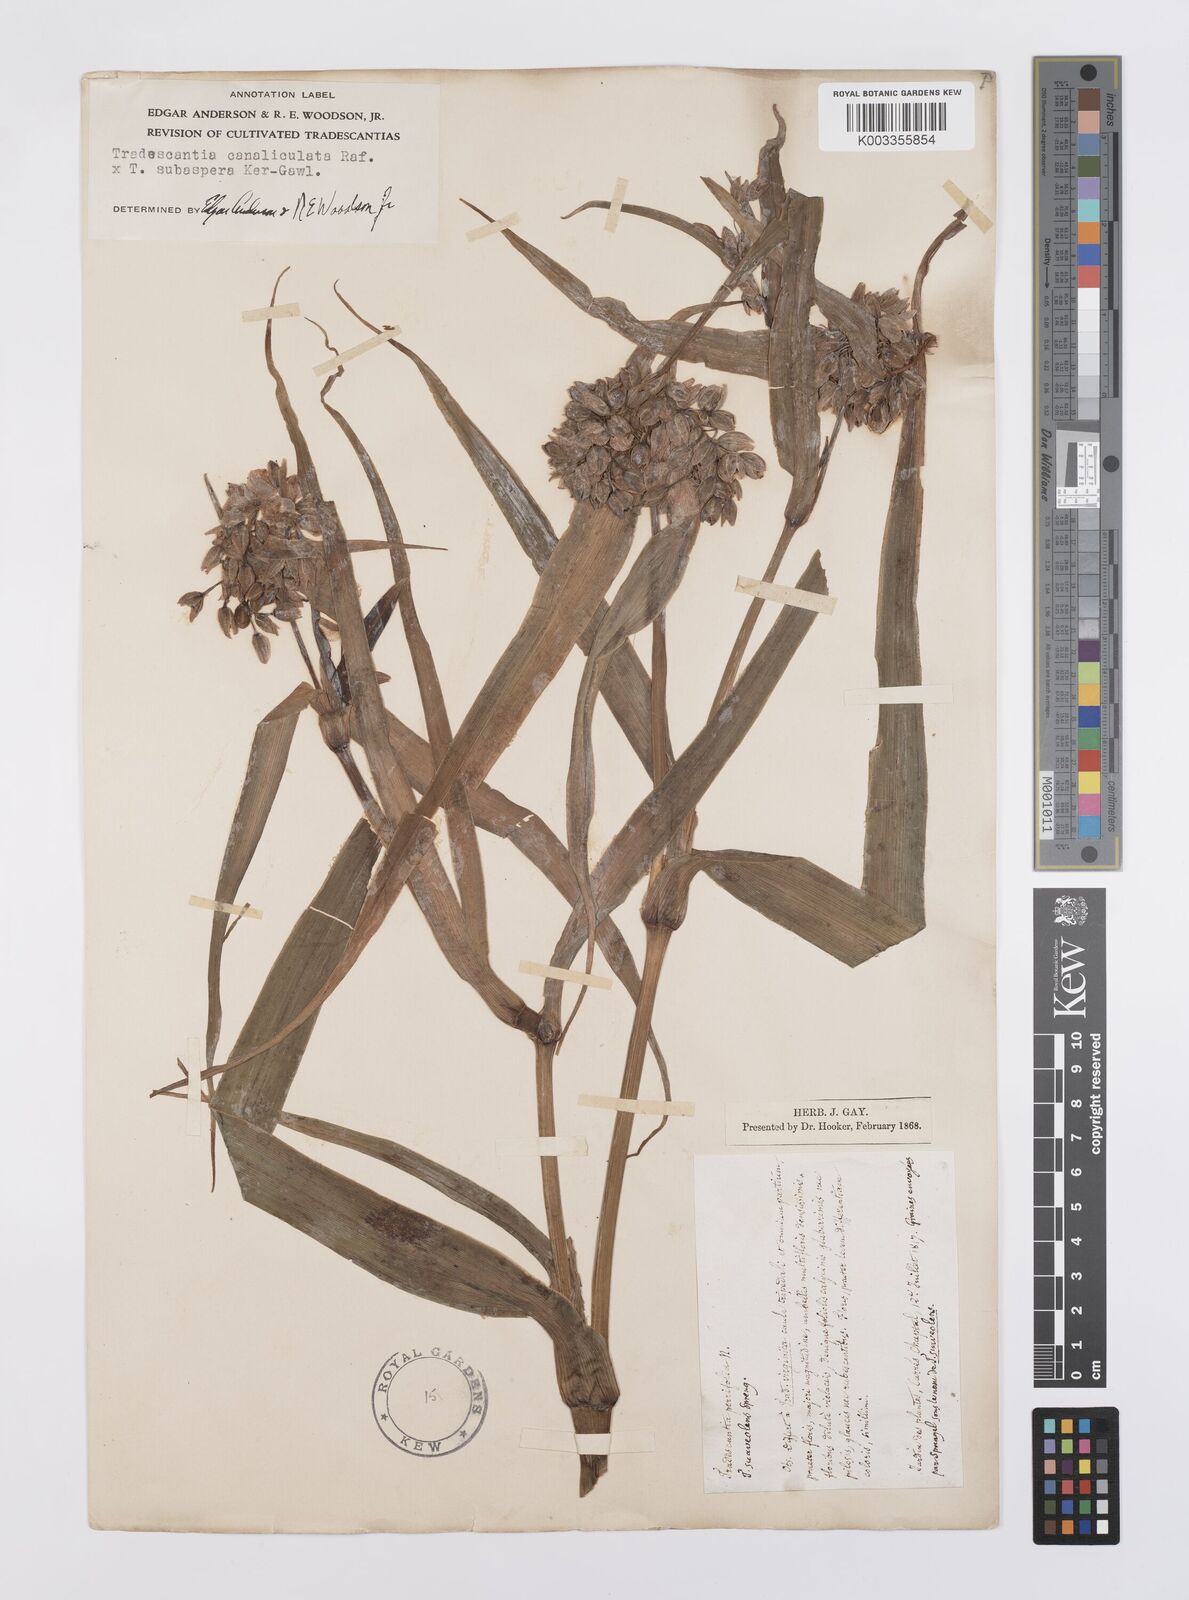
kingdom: Plantae
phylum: Tracheophyta
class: Liliopsida
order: Commelinales
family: Commelinaceae
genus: Tradescantia
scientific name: Tradescantia ohiensis
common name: Ohio spiderwort
